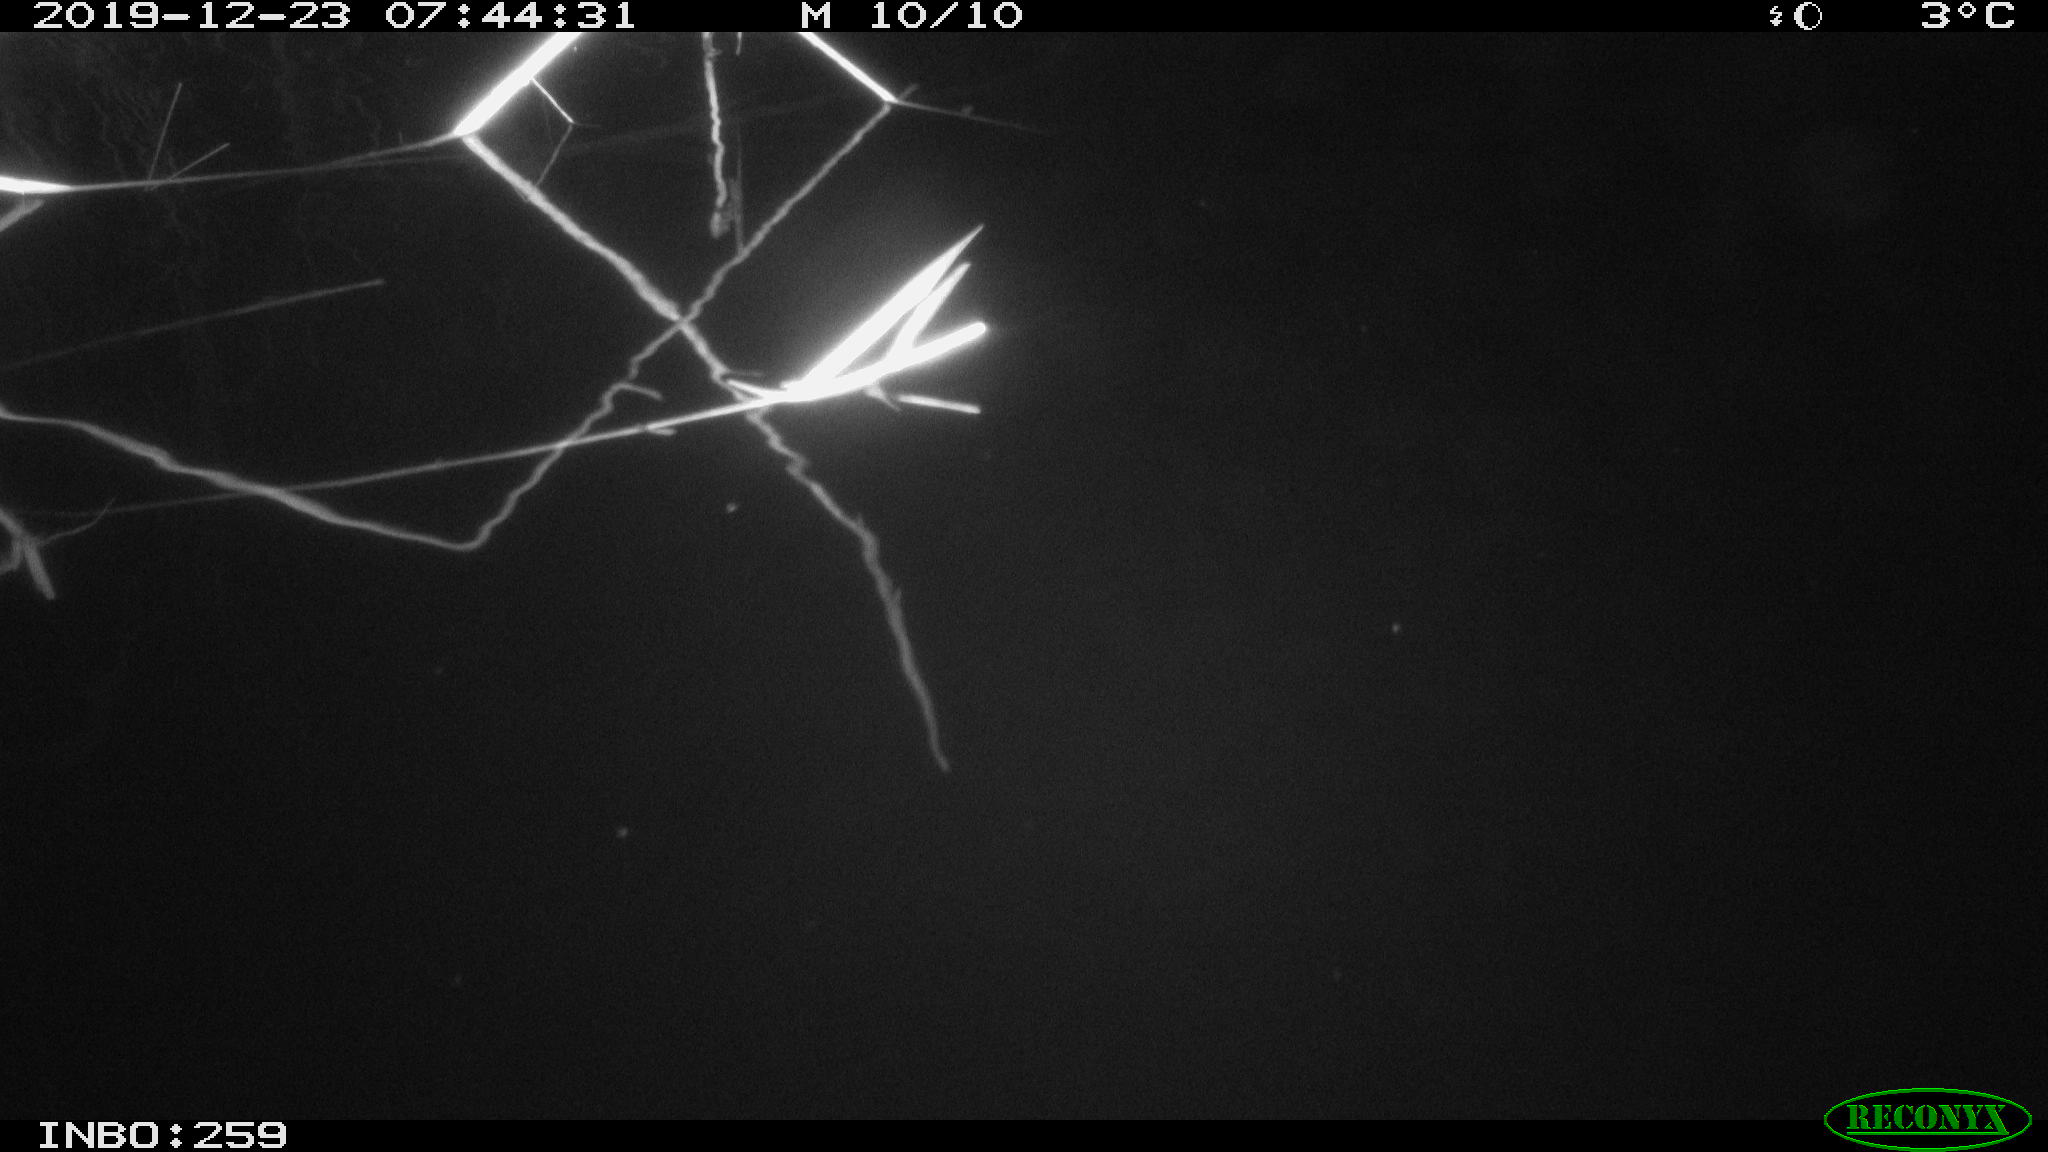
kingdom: Animalia
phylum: Chordata
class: Aves
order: Gruiformes
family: Rallidae
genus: Gallinula
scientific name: Gallinula chloropus
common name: Common moorhen
